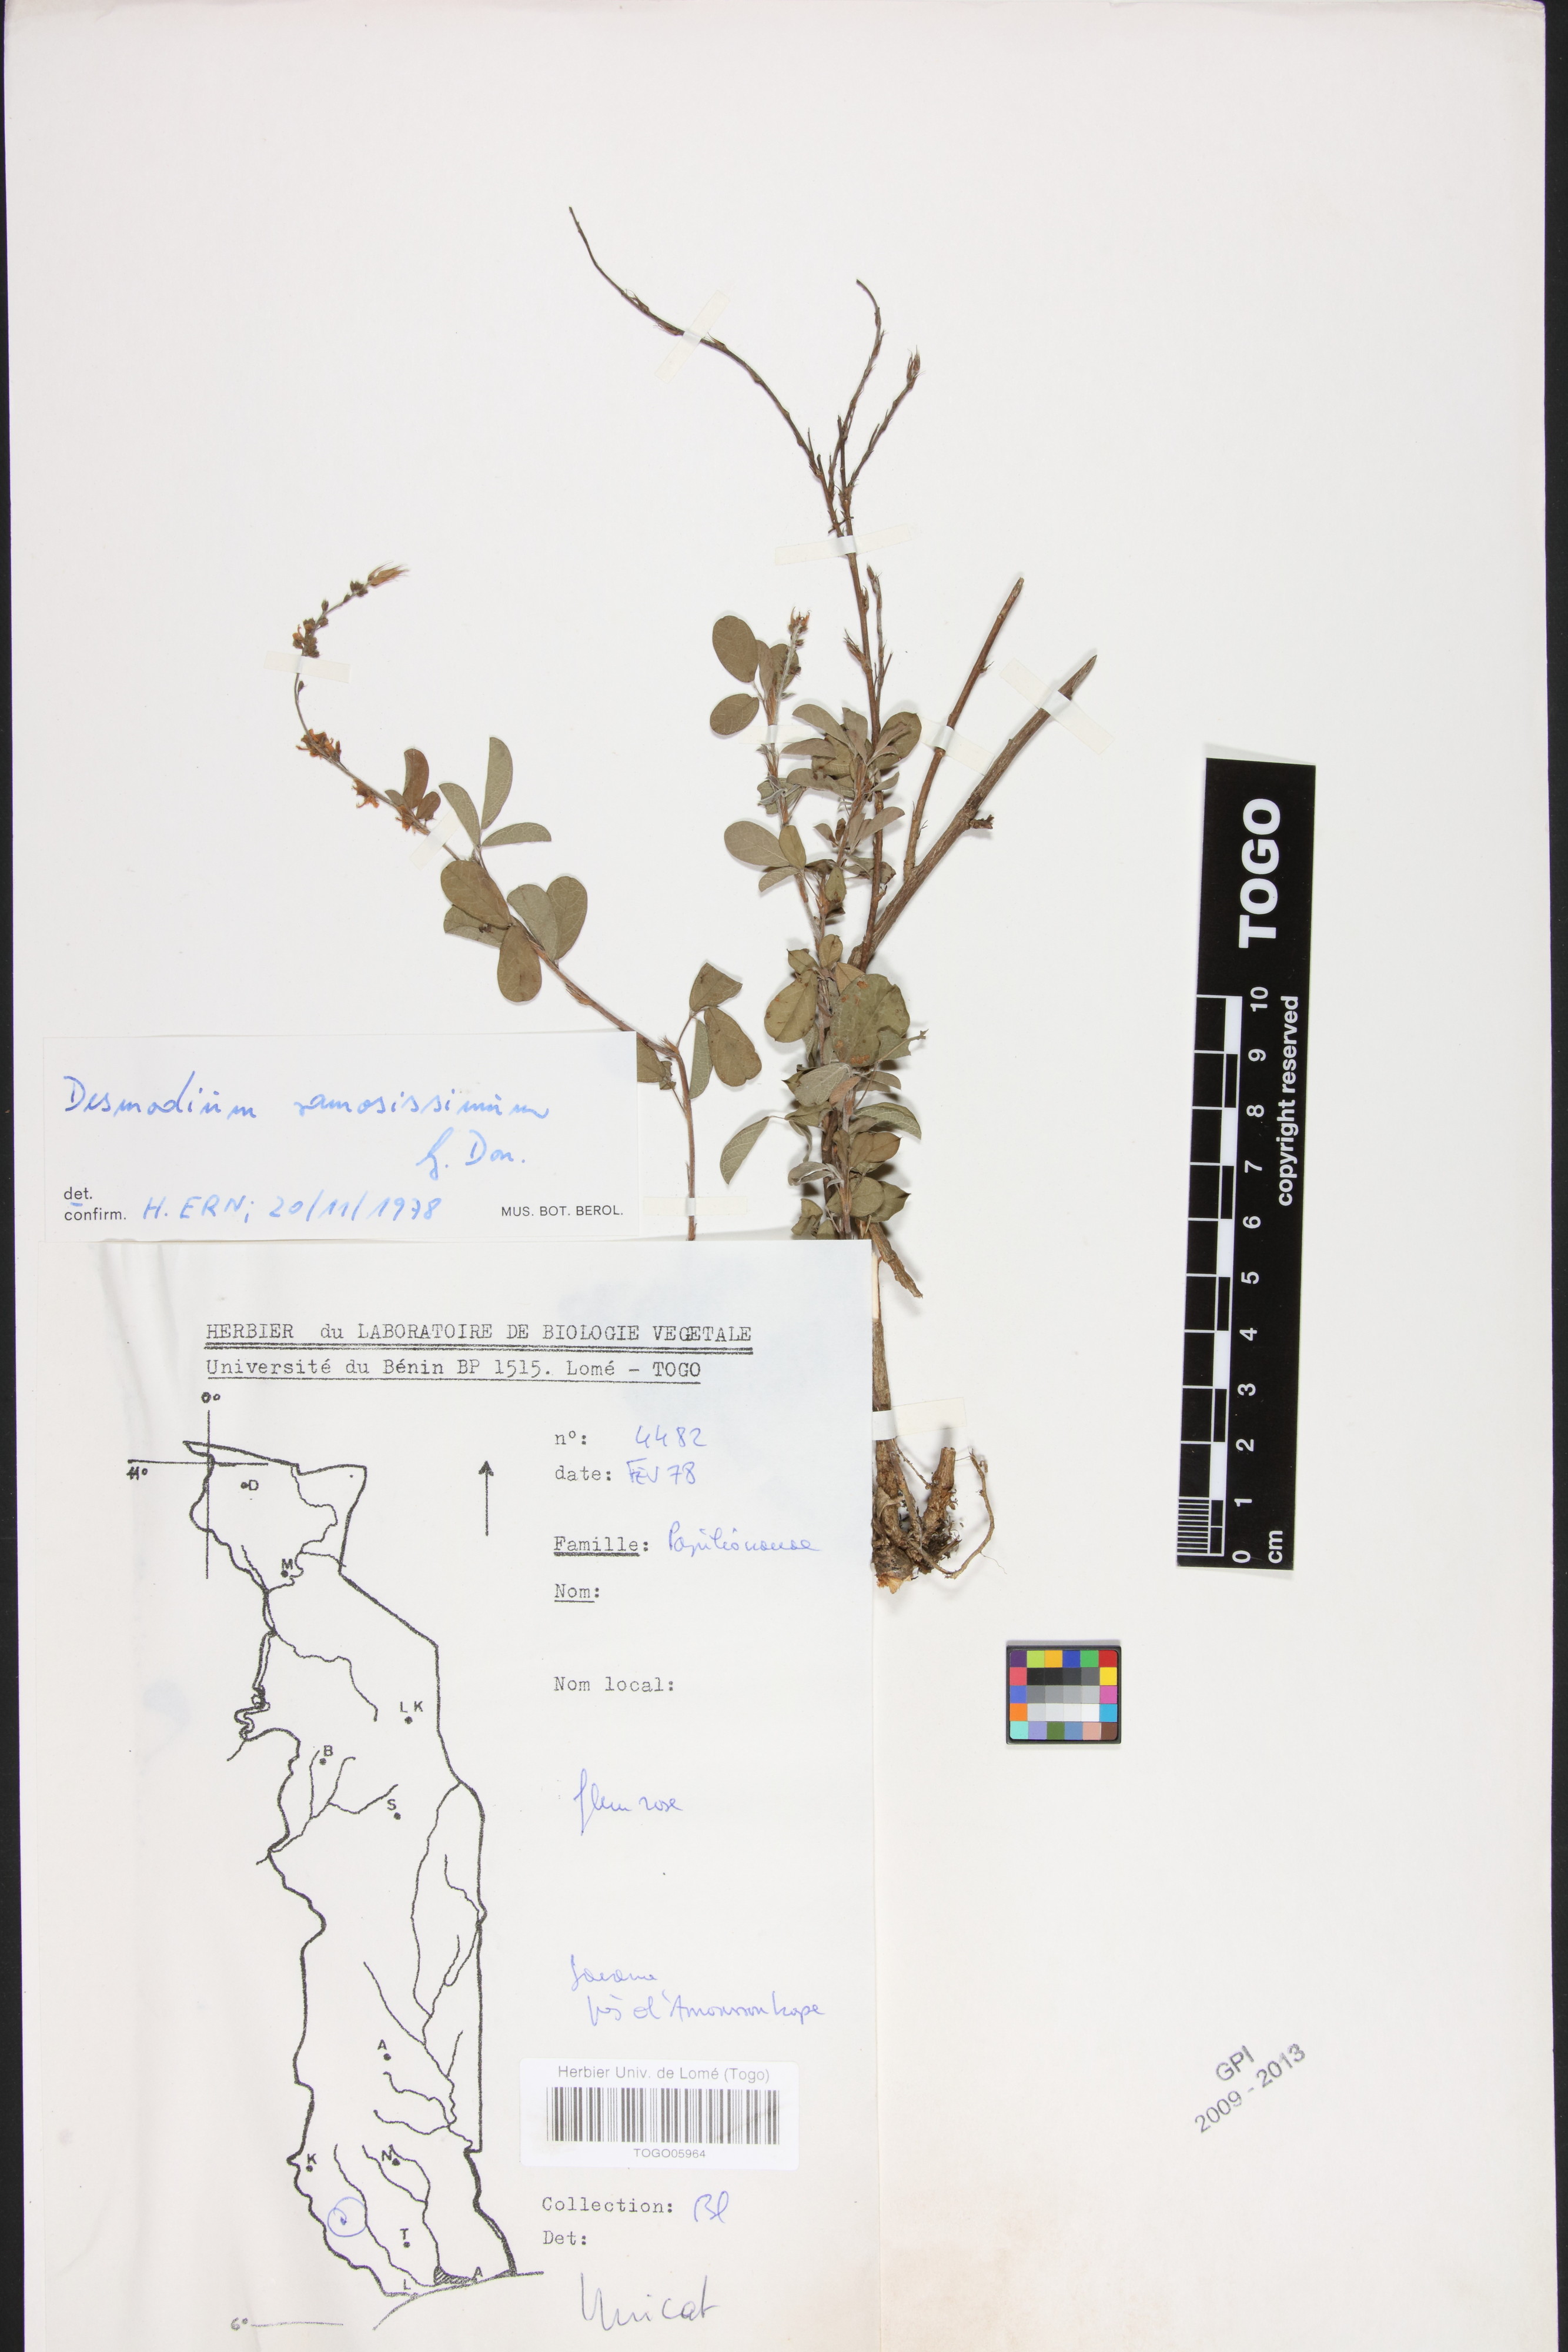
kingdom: Plantae
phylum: Tracheophyta
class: Magnoliopsida
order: Fabales
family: Fabaceae
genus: Grona
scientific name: Grona ramosissima
